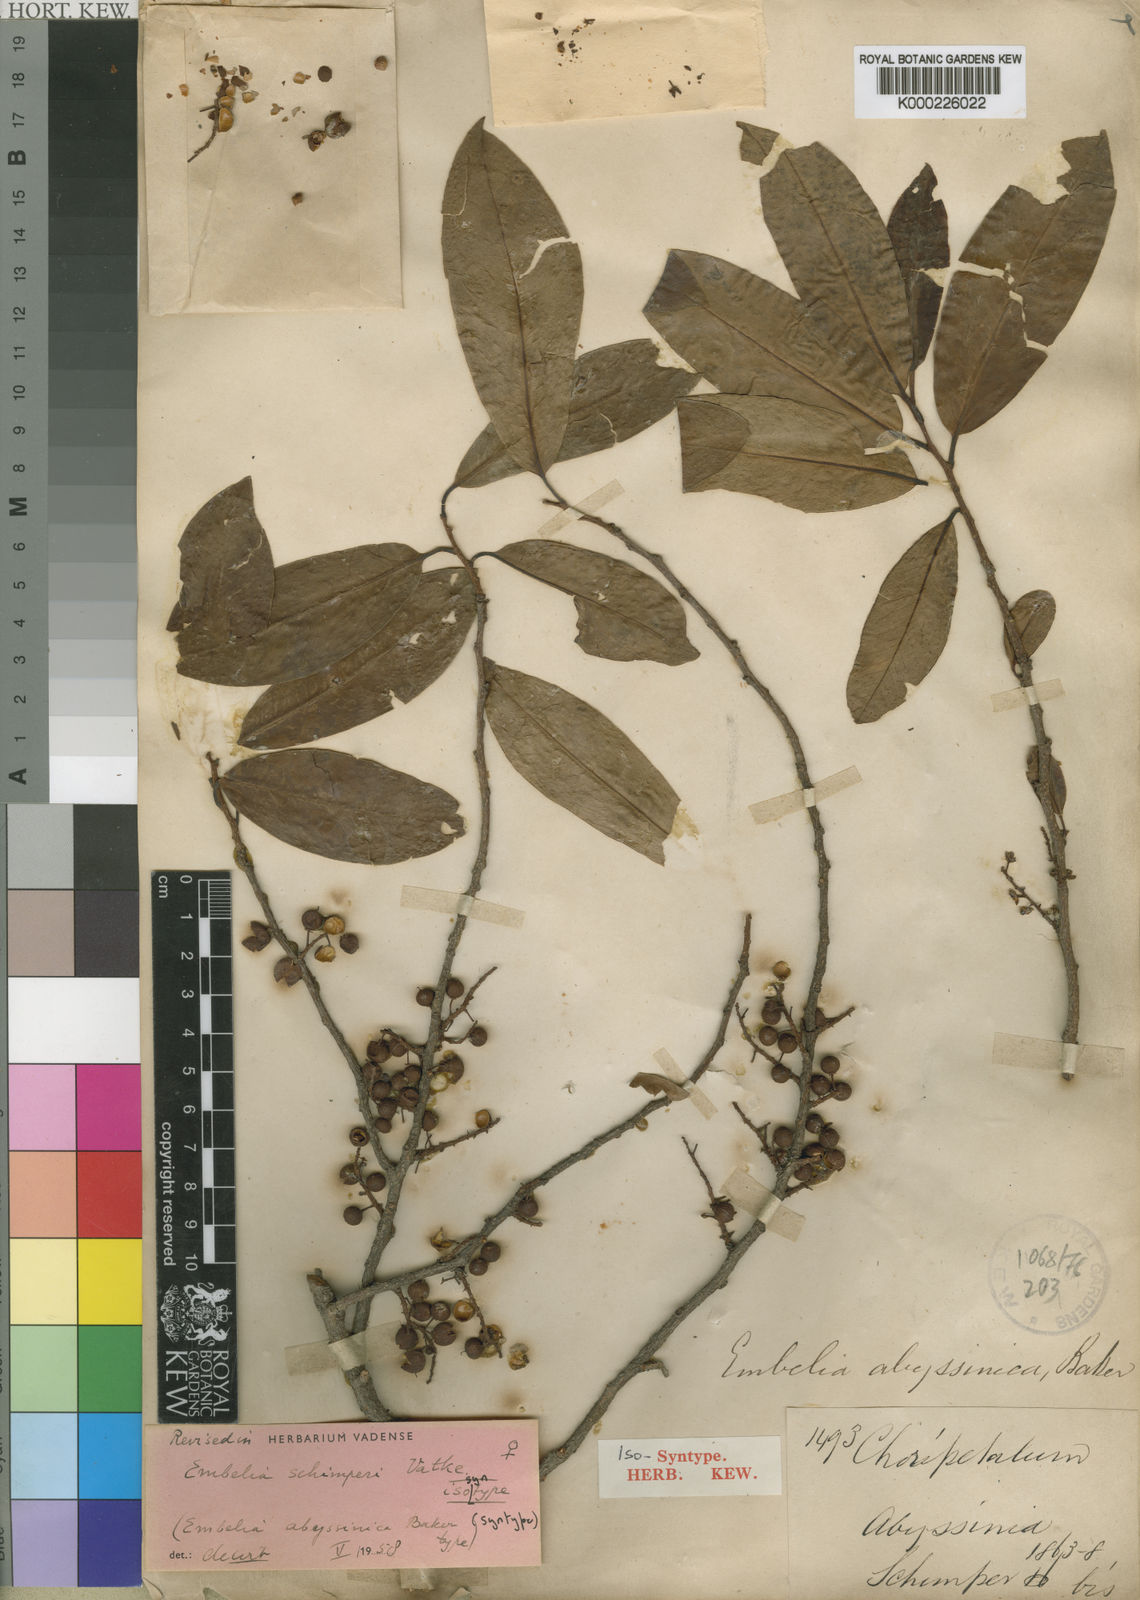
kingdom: Plantae
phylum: Tracheophyta
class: Magnoliopsida
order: Ericales
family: Primulaceae
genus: Embelia
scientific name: Embelia schimperi
